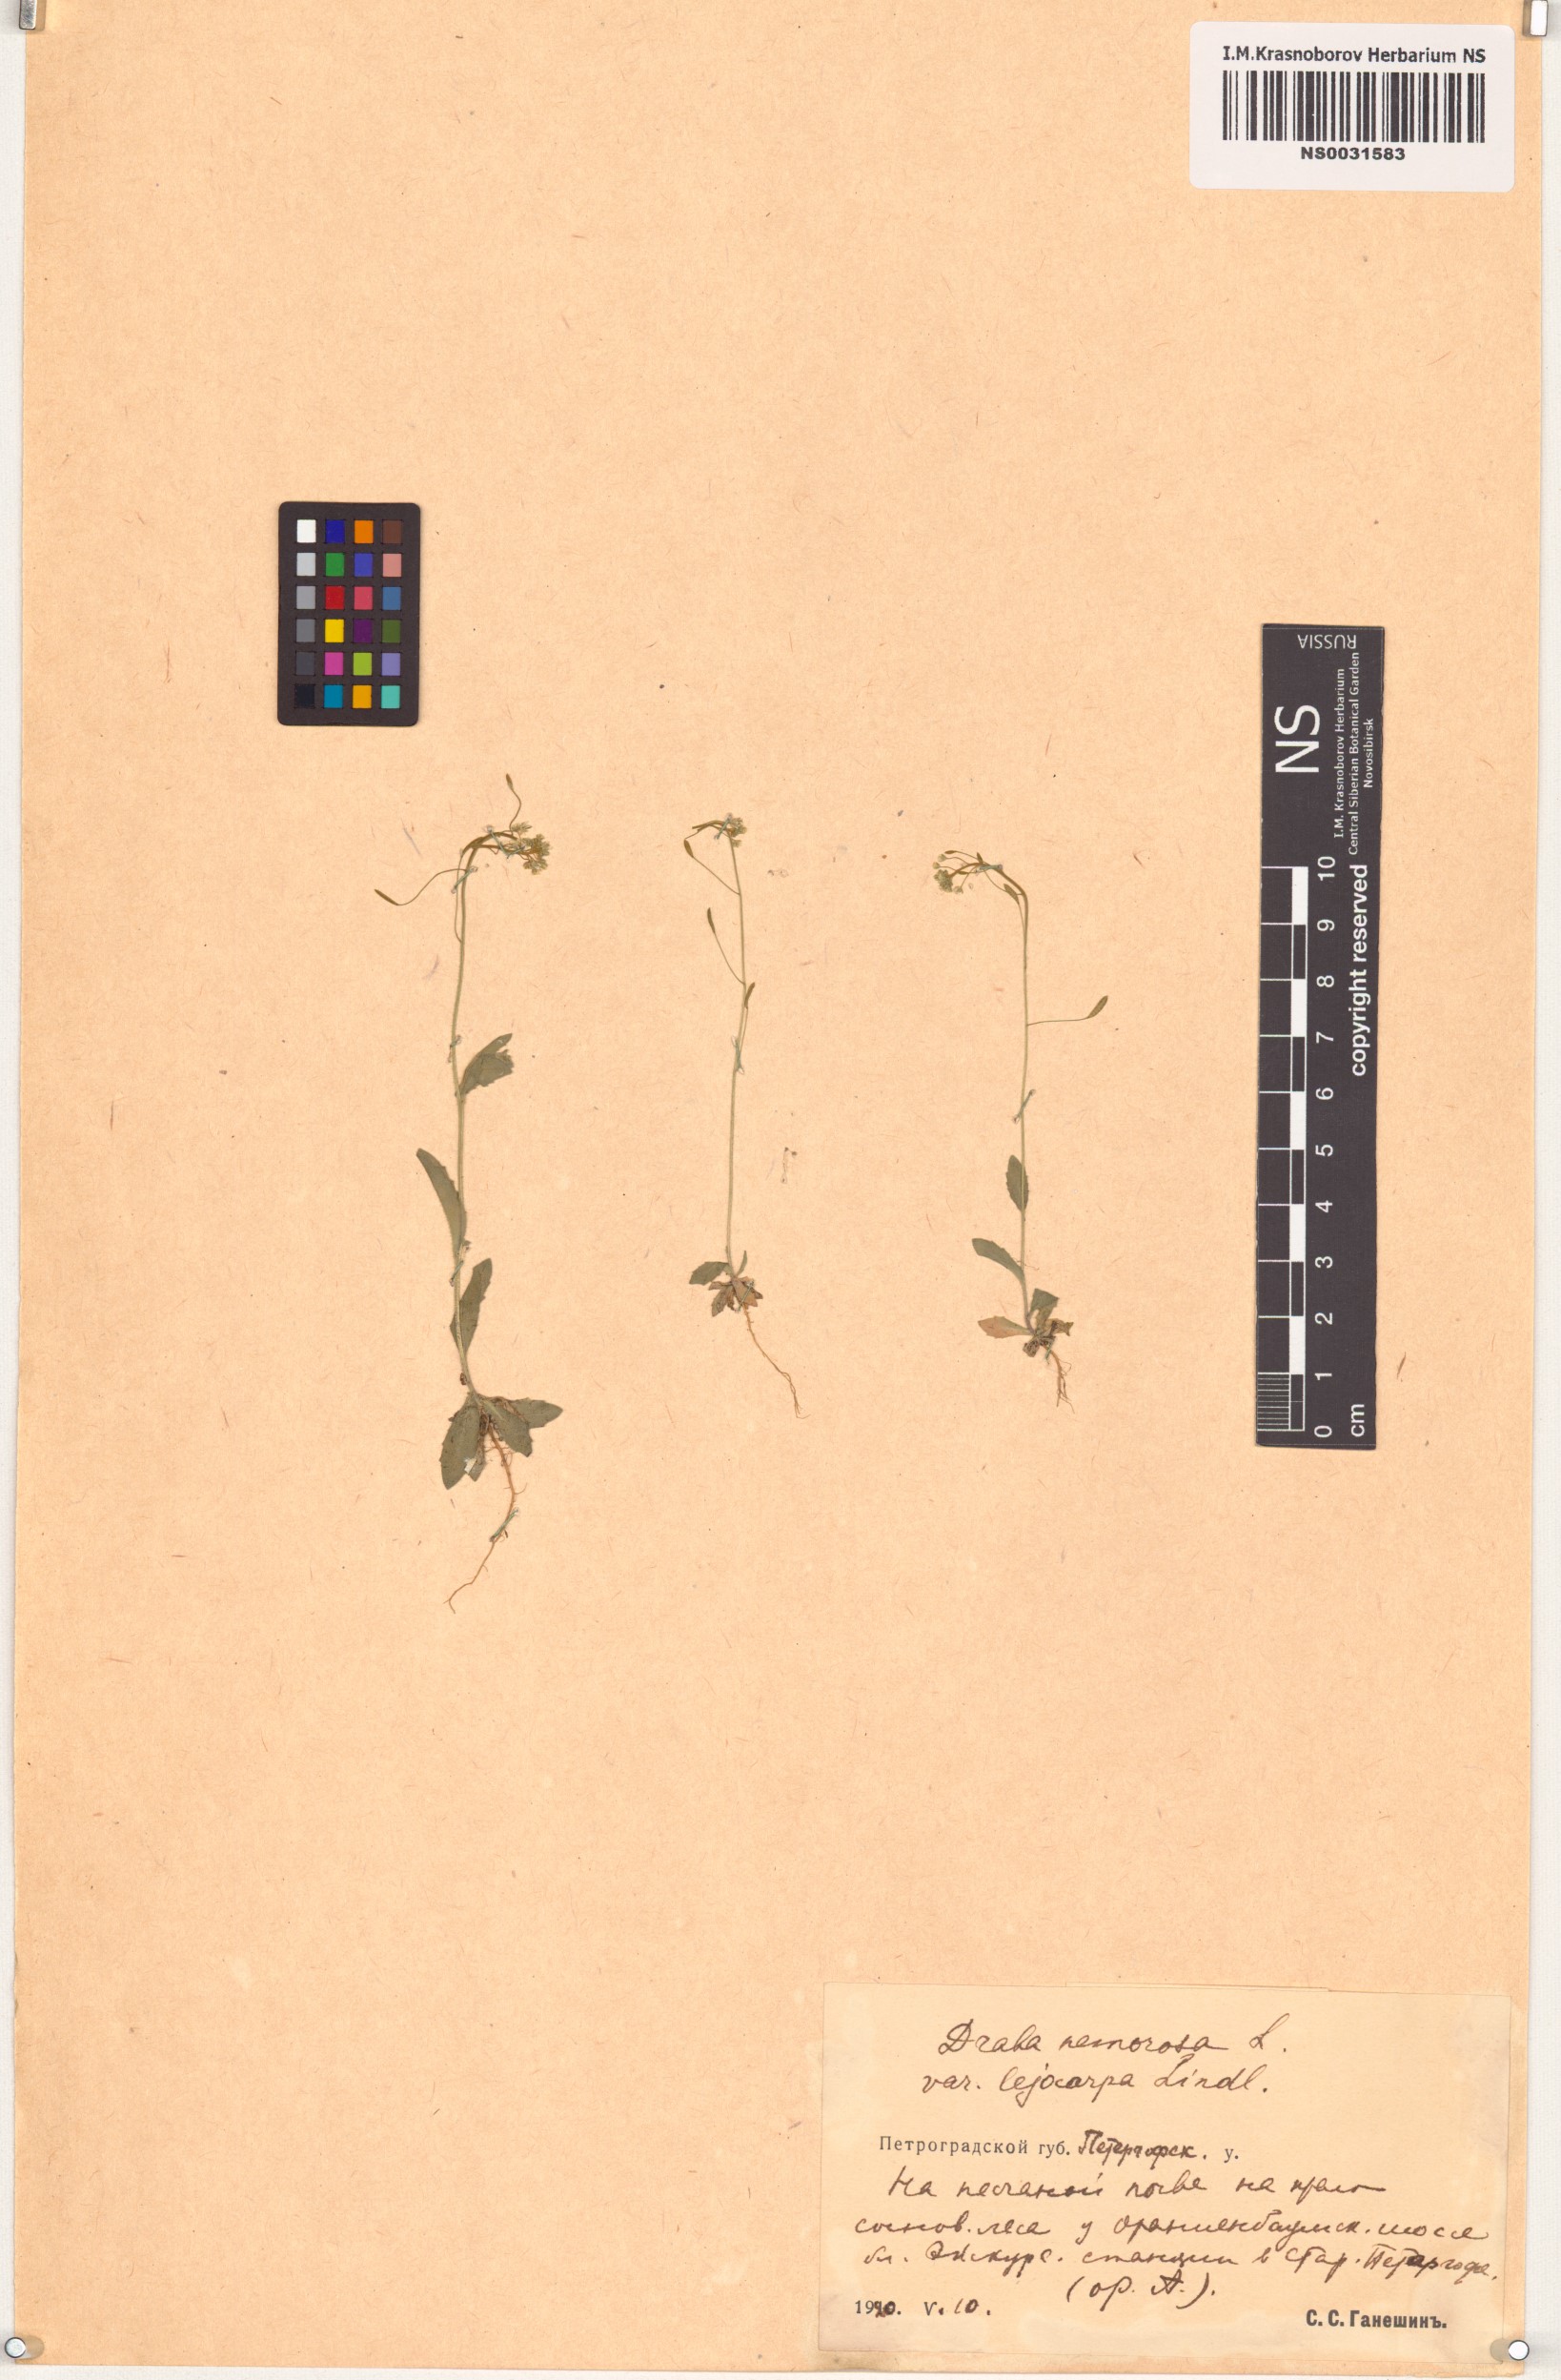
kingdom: Plantae
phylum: Tracheophyta
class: Magnoliopsida
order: Brassicales
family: Brassicaceae
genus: Draba
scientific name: Draba nemorosa
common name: Wood whitlow-grass
